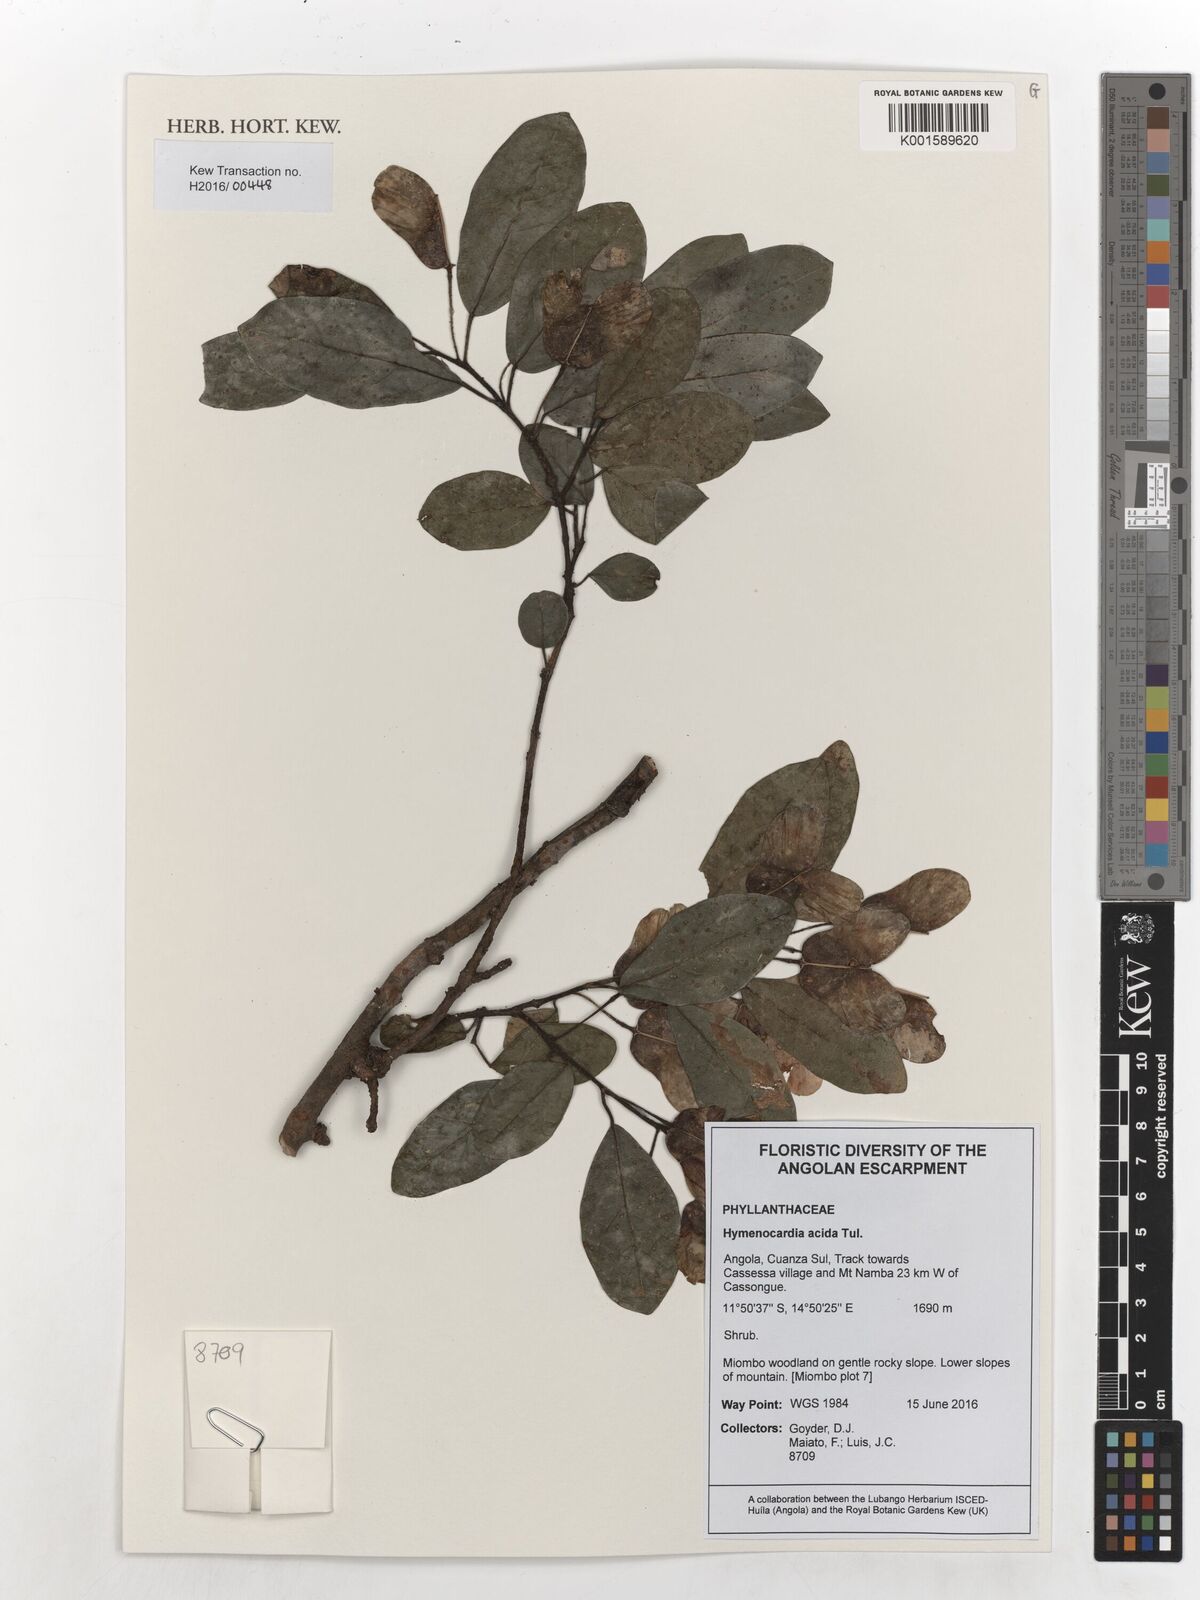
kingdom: Plantae
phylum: Tracheophyta
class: Magnoliopsida
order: Malpighiales
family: Phyllanthaceae
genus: Hymenocardia
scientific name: Hymenocardia acida
